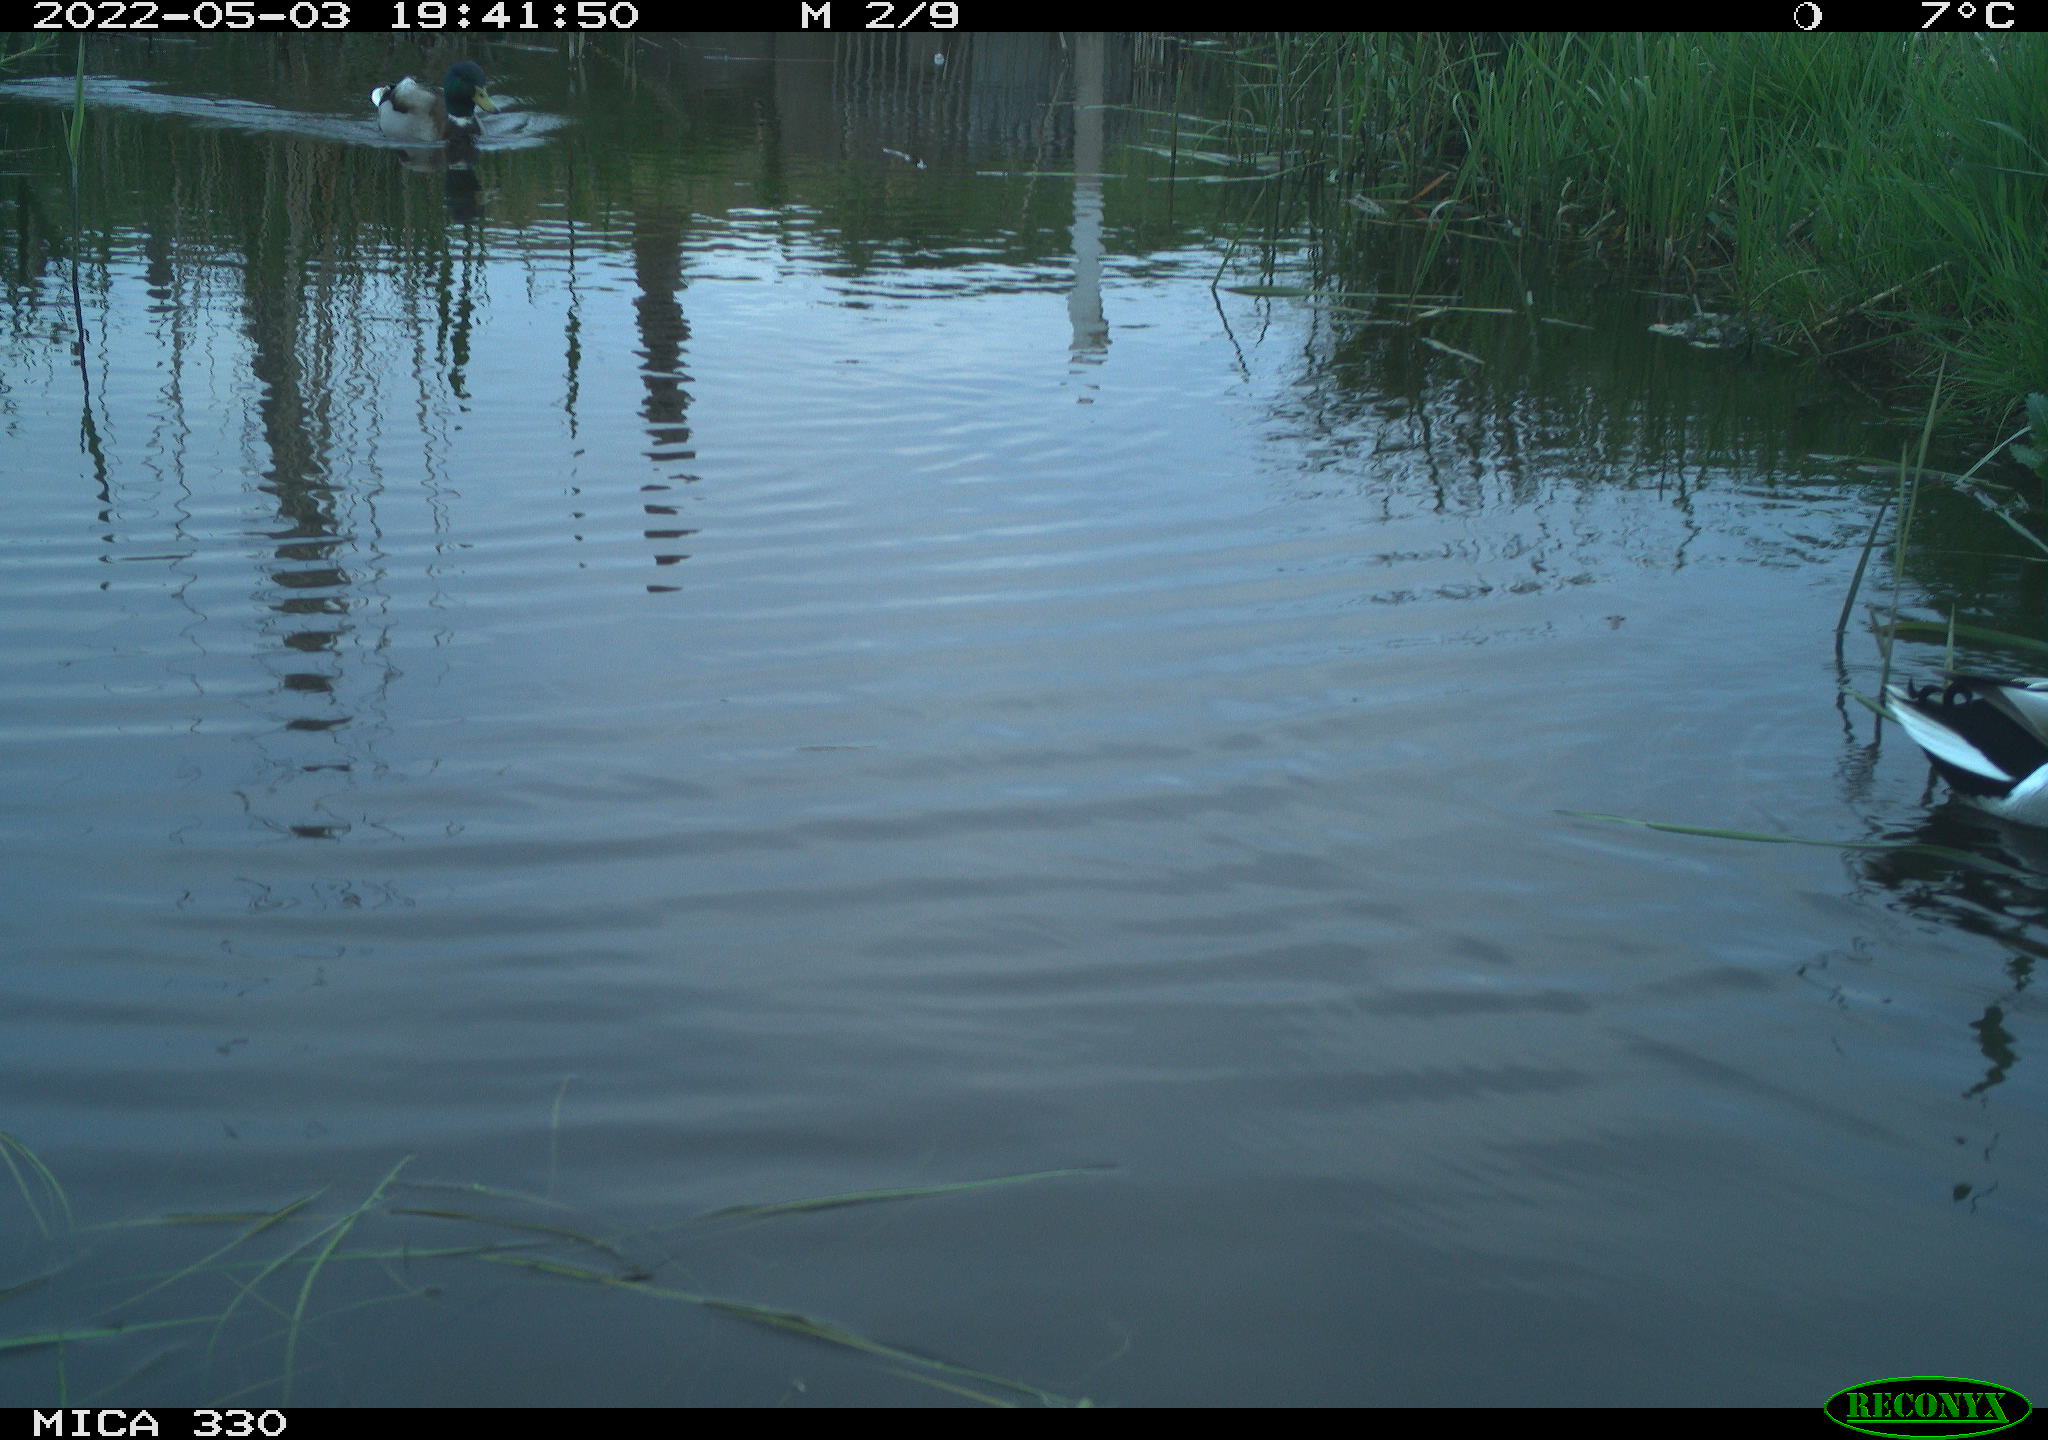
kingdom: Animalia
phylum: Chordata
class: Aves
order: Anseriformes
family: Anatidae
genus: Anas
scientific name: Anas platyrhynchos
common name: Mallard
